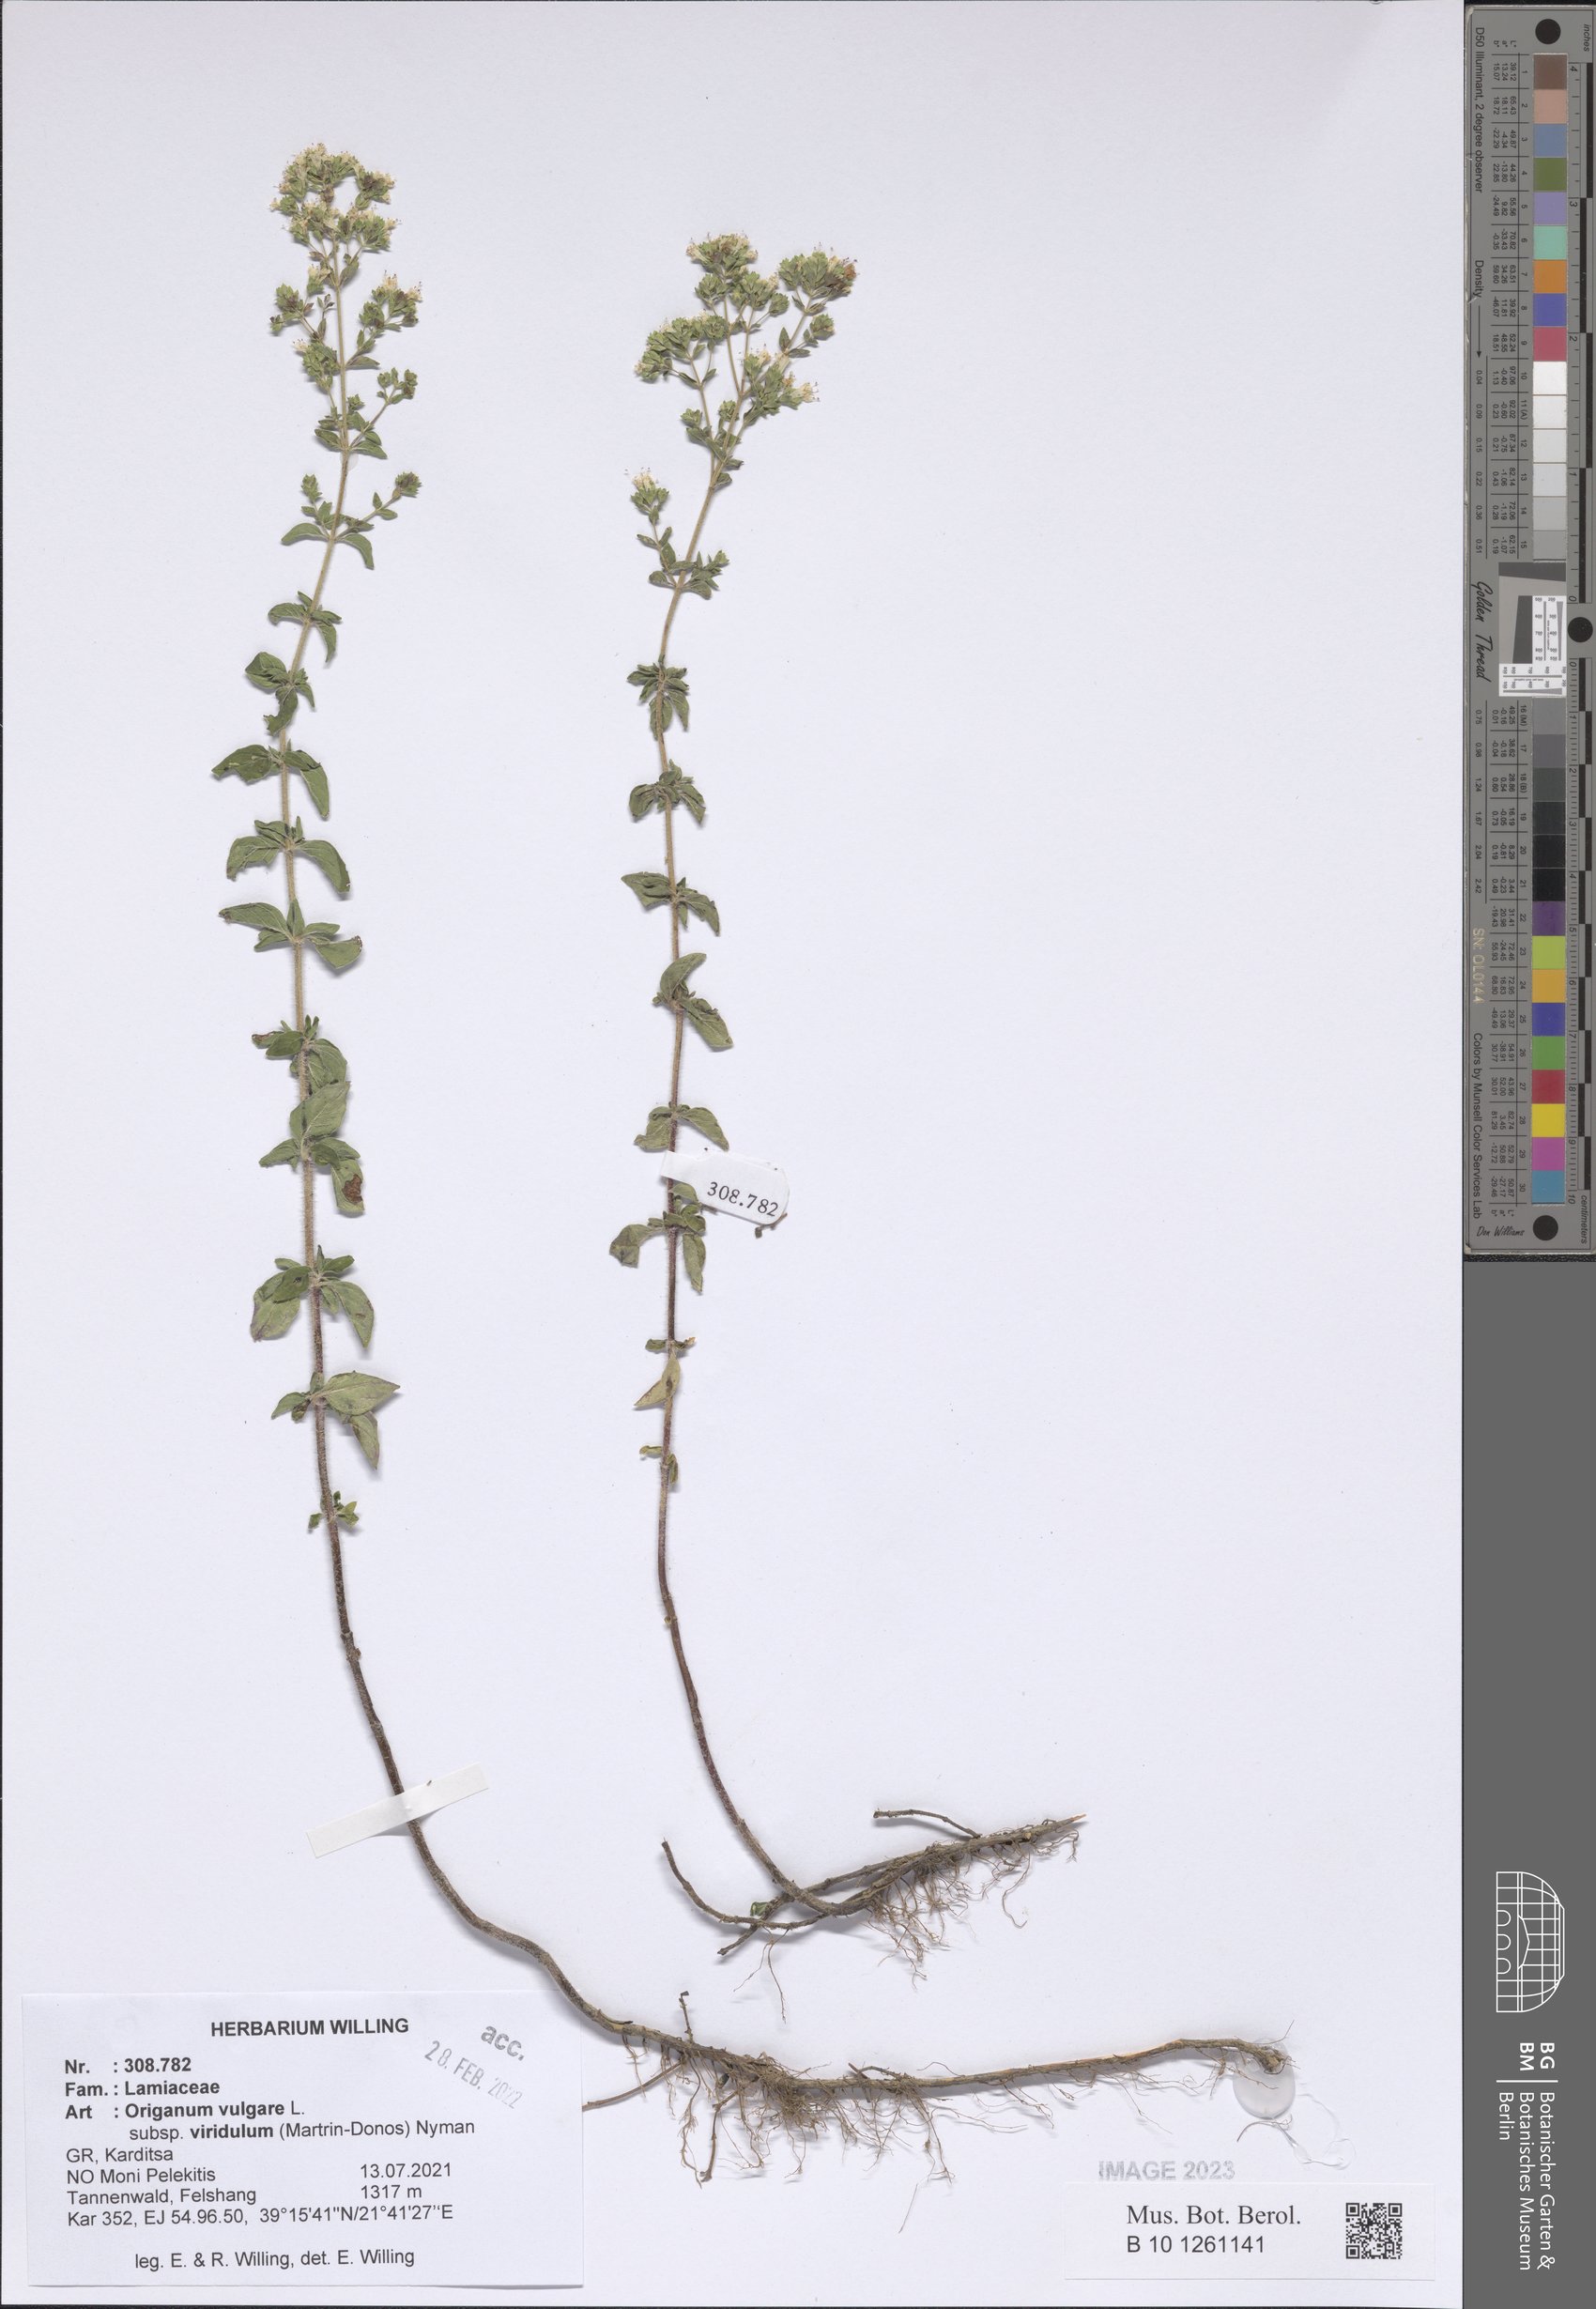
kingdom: Plantae
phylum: Tracheophyta
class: Magnoliopsida
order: Lamiales
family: Lamiaceae
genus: Origanum
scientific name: Origanum vulgare
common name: Wild marjoram
